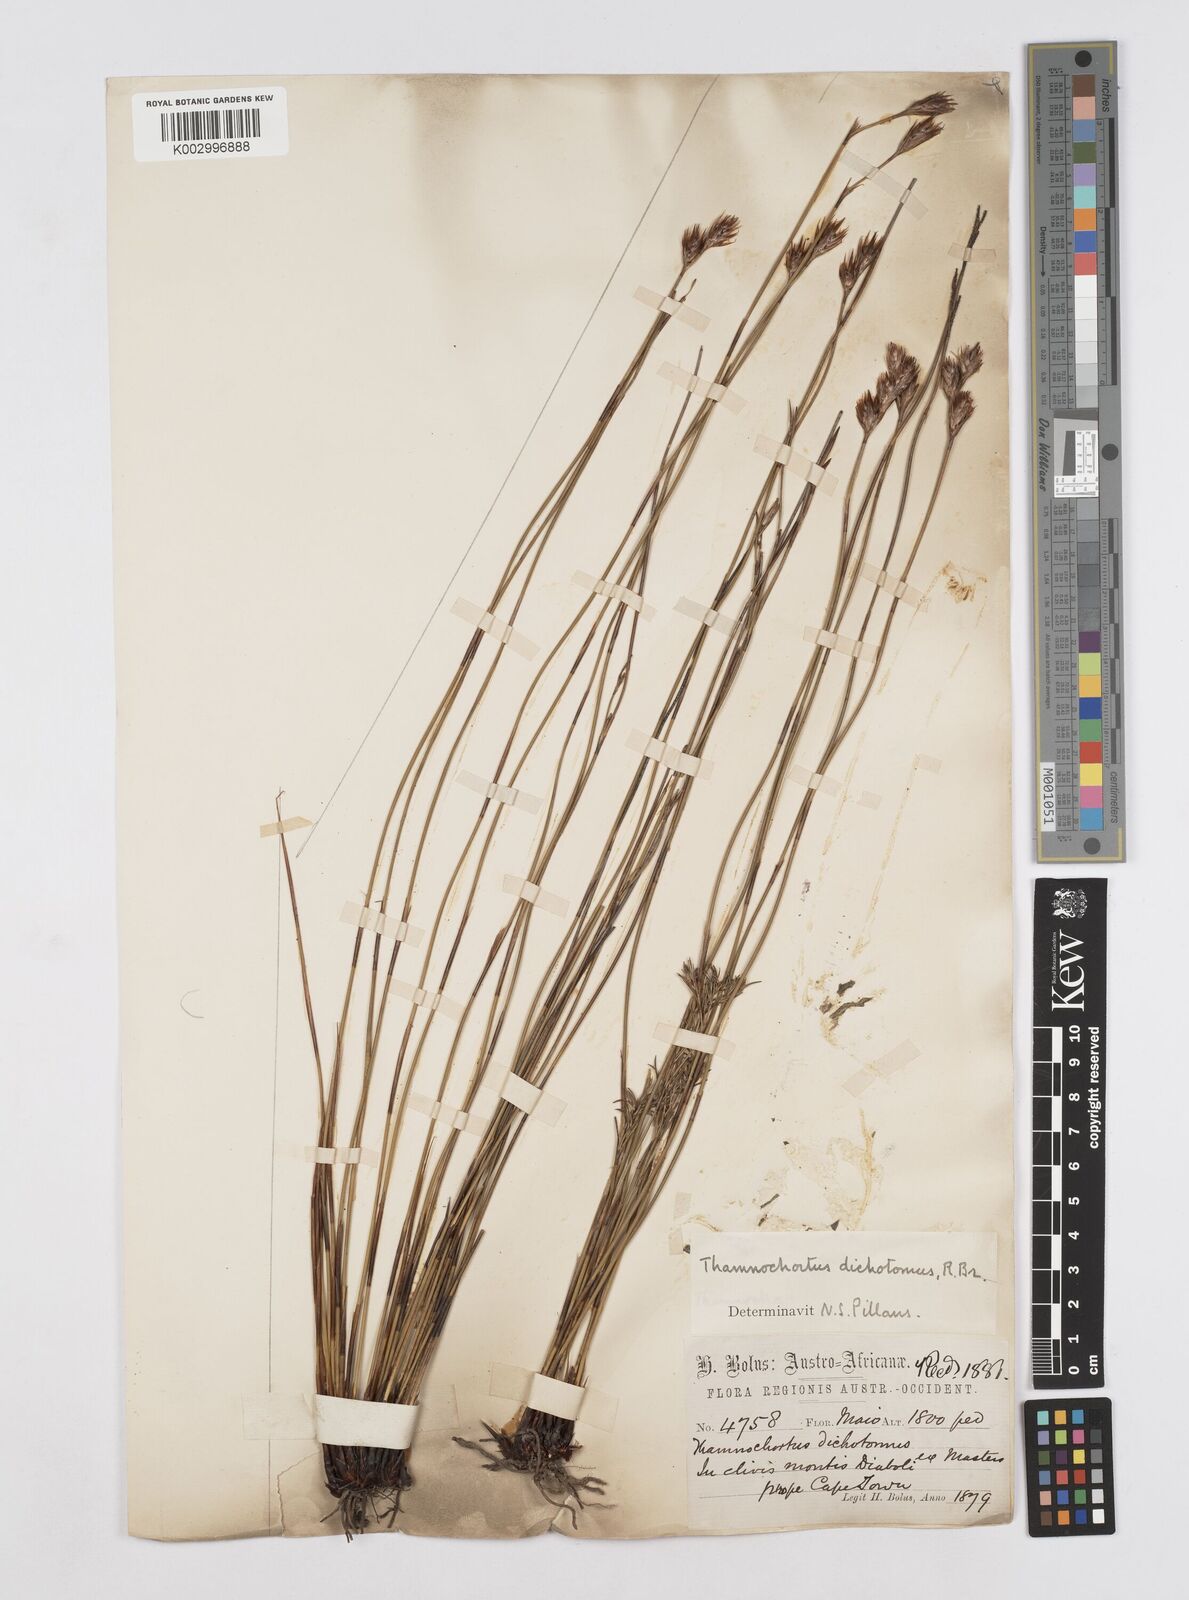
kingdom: Plantae
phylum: Tracheophyta
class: Liliopsida
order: Poales
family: Restionaceae
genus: Thamnochortus
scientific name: Thamnochortus lucens
